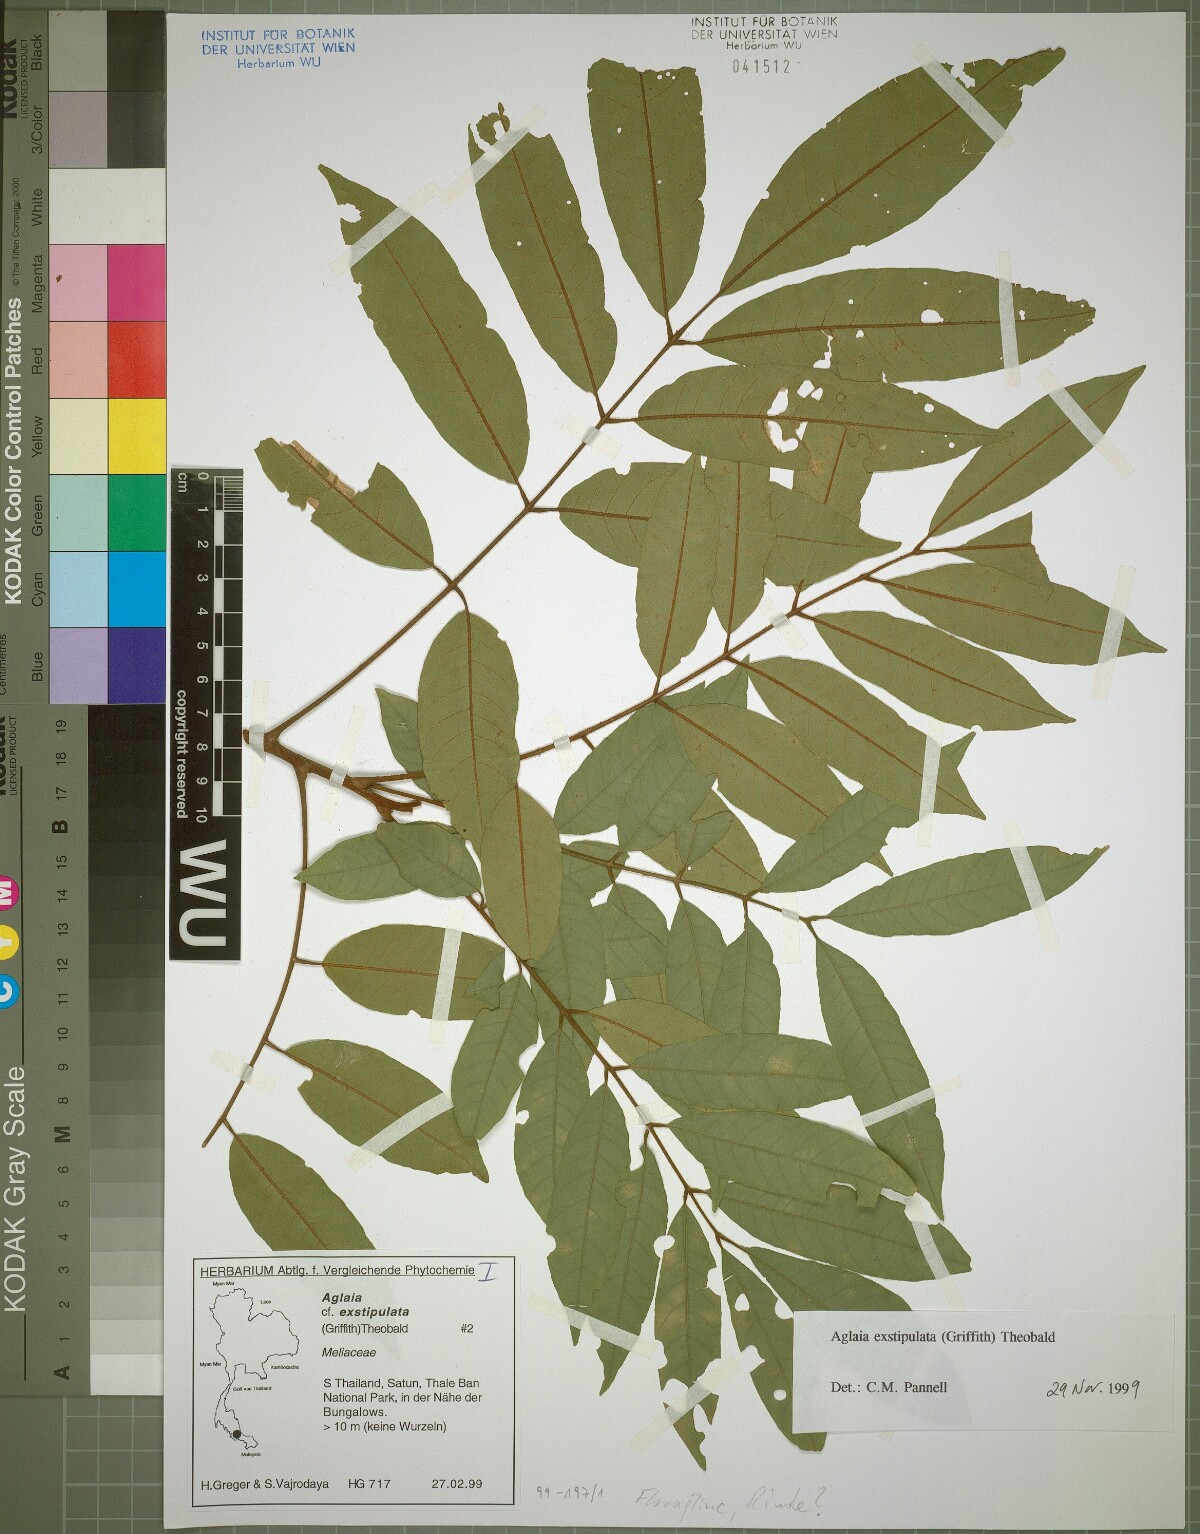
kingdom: Plantae
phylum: Tracheophyta
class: Magnoliopsida
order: Sapindales
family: Meliaceae
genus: Aglaia
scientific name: Aglaia exstipulata
